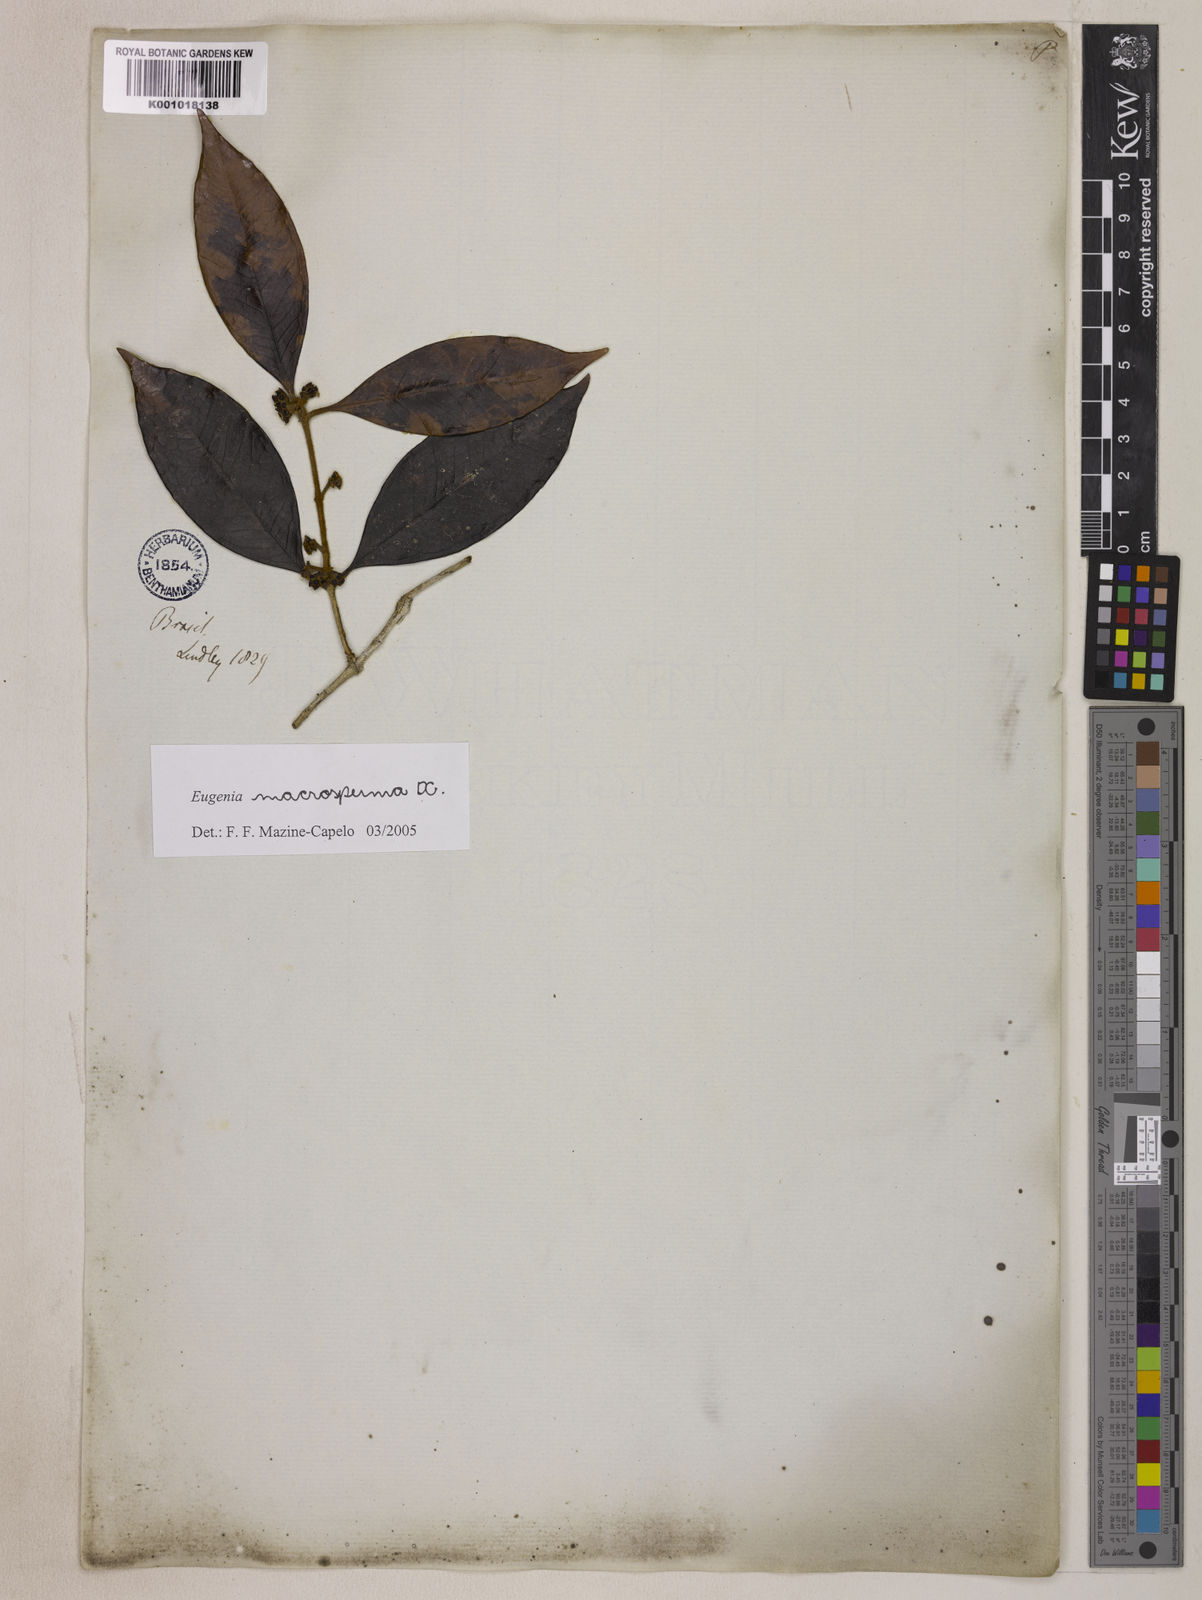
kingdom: Plantae
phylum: Tracheophyta
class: Magnoliopsida
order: Myrtales
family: Myrtaceae
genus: Eugenia
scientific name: Eugenia macrosperma
